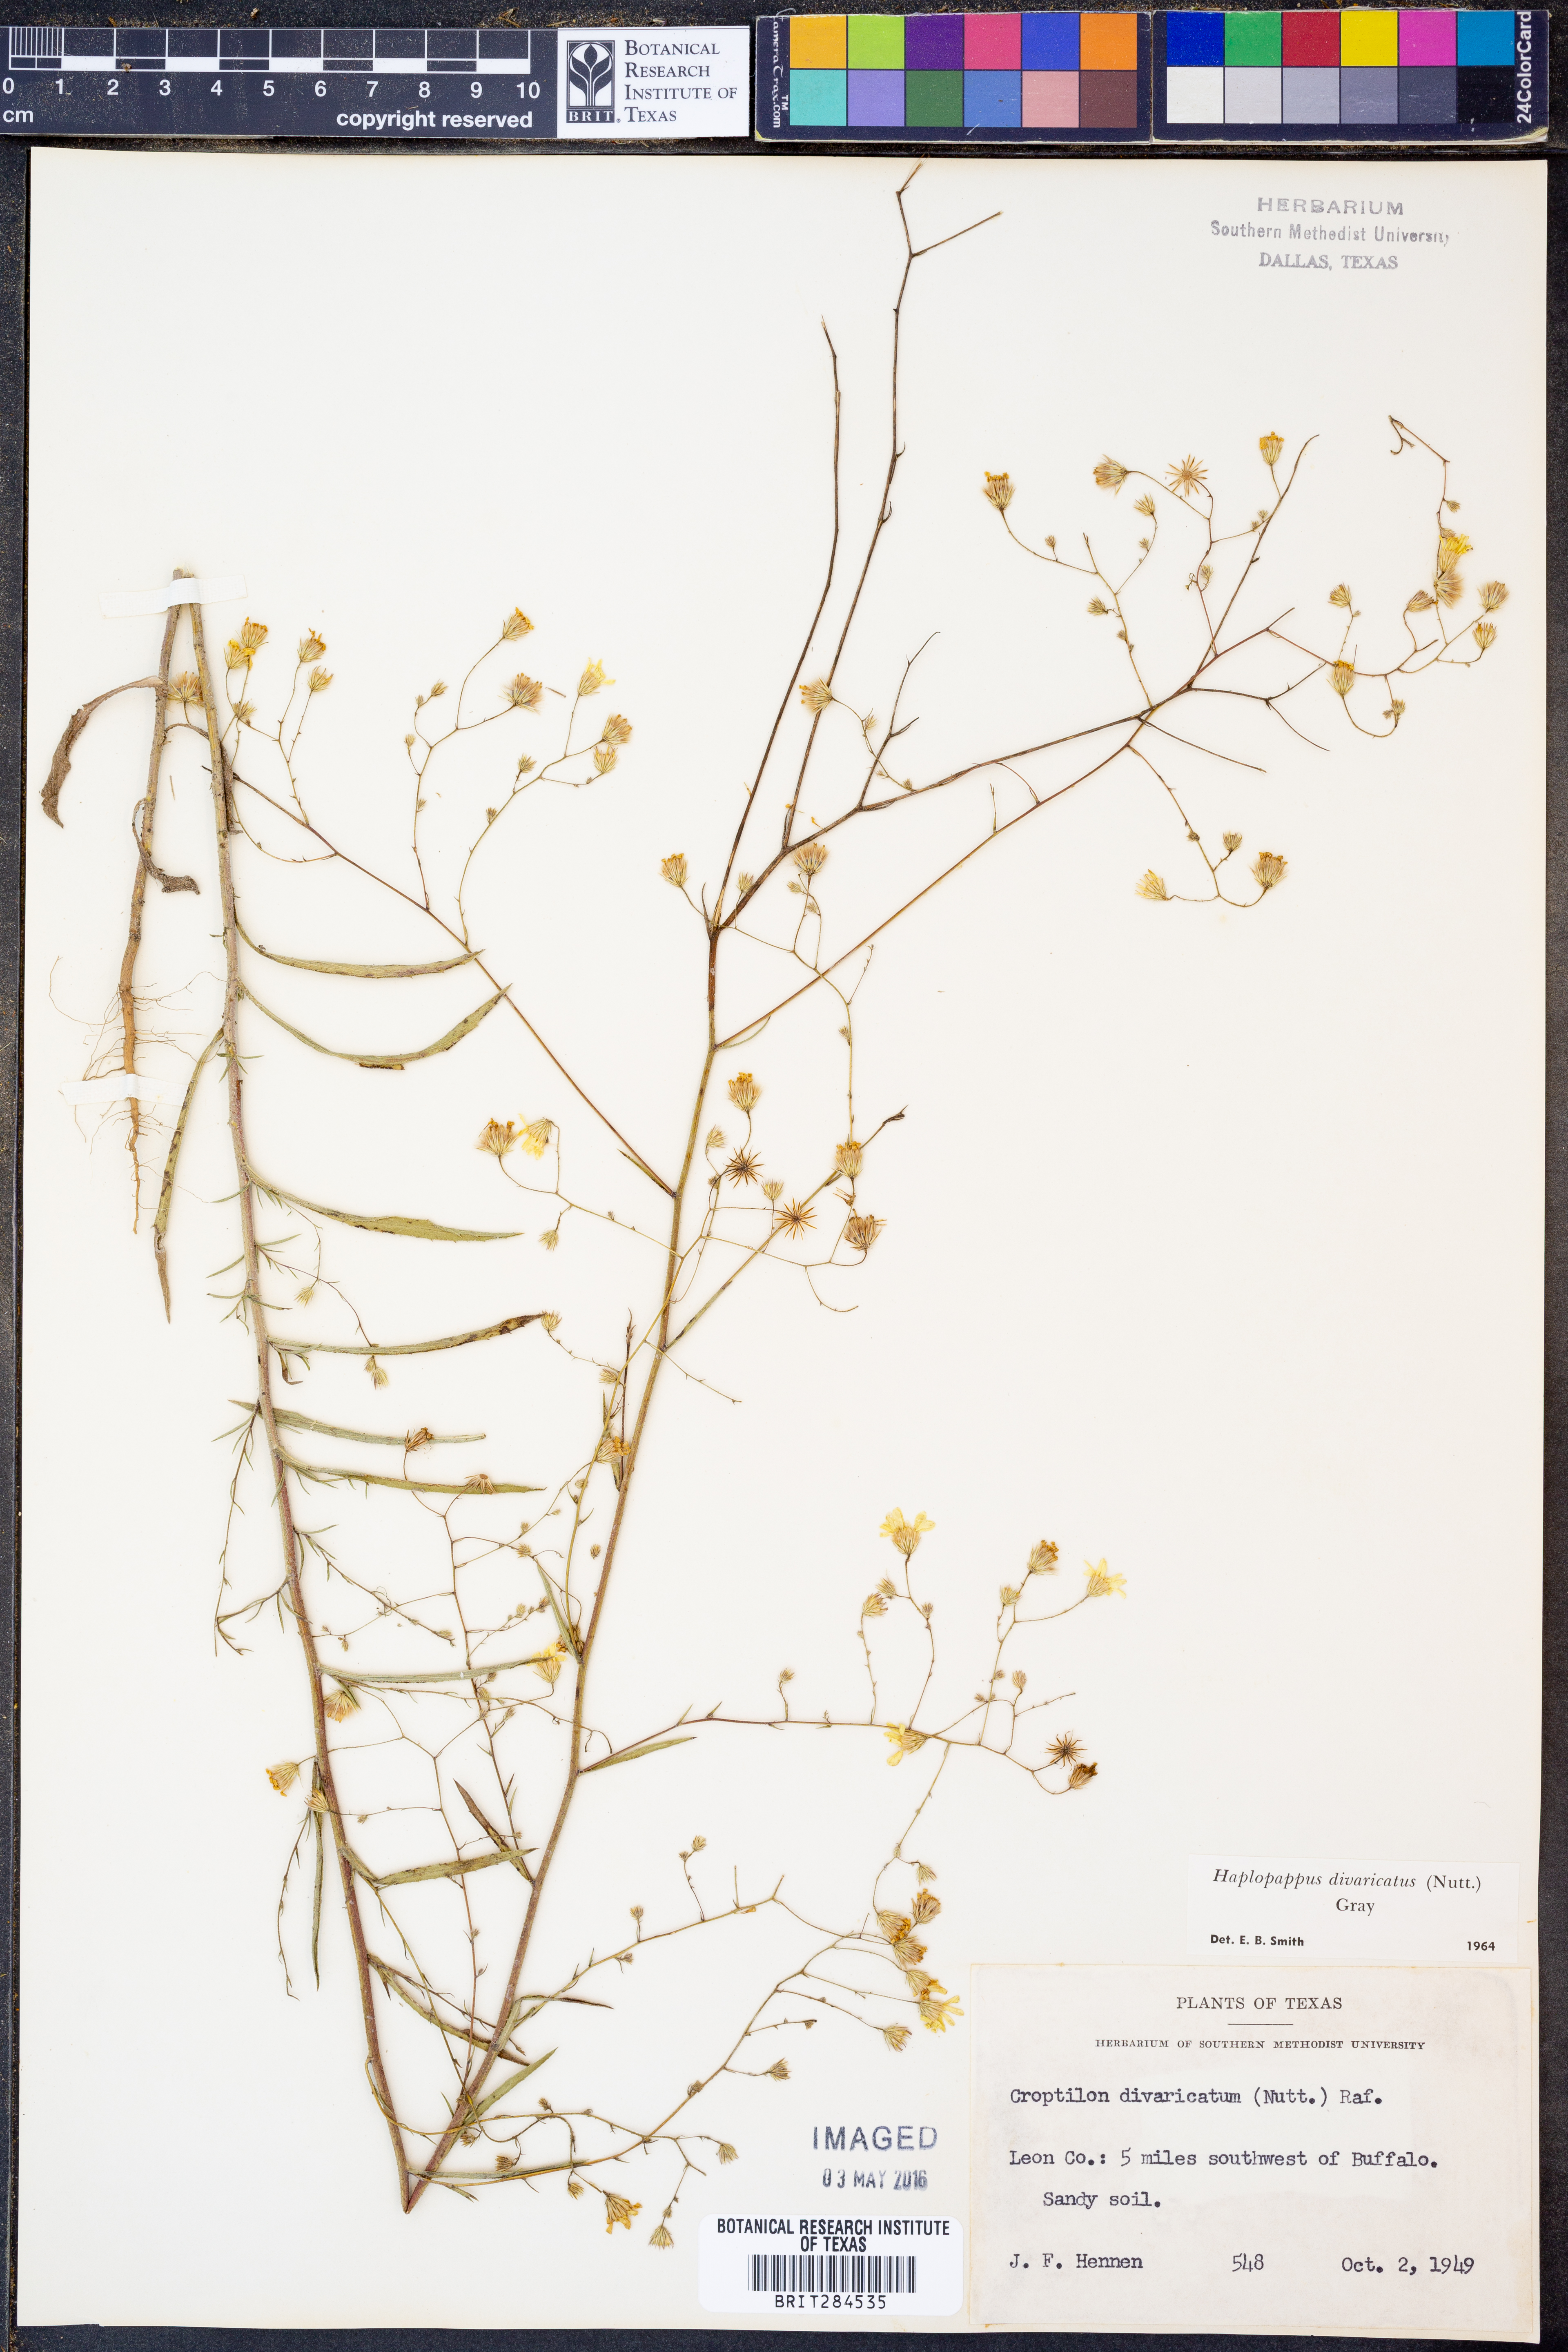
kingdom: Plantae
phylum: Tracheophyta
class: Magnoliopsida
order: Asterales
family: Asteraceae
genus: Croptilon
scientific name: Croptilon divaricatum
